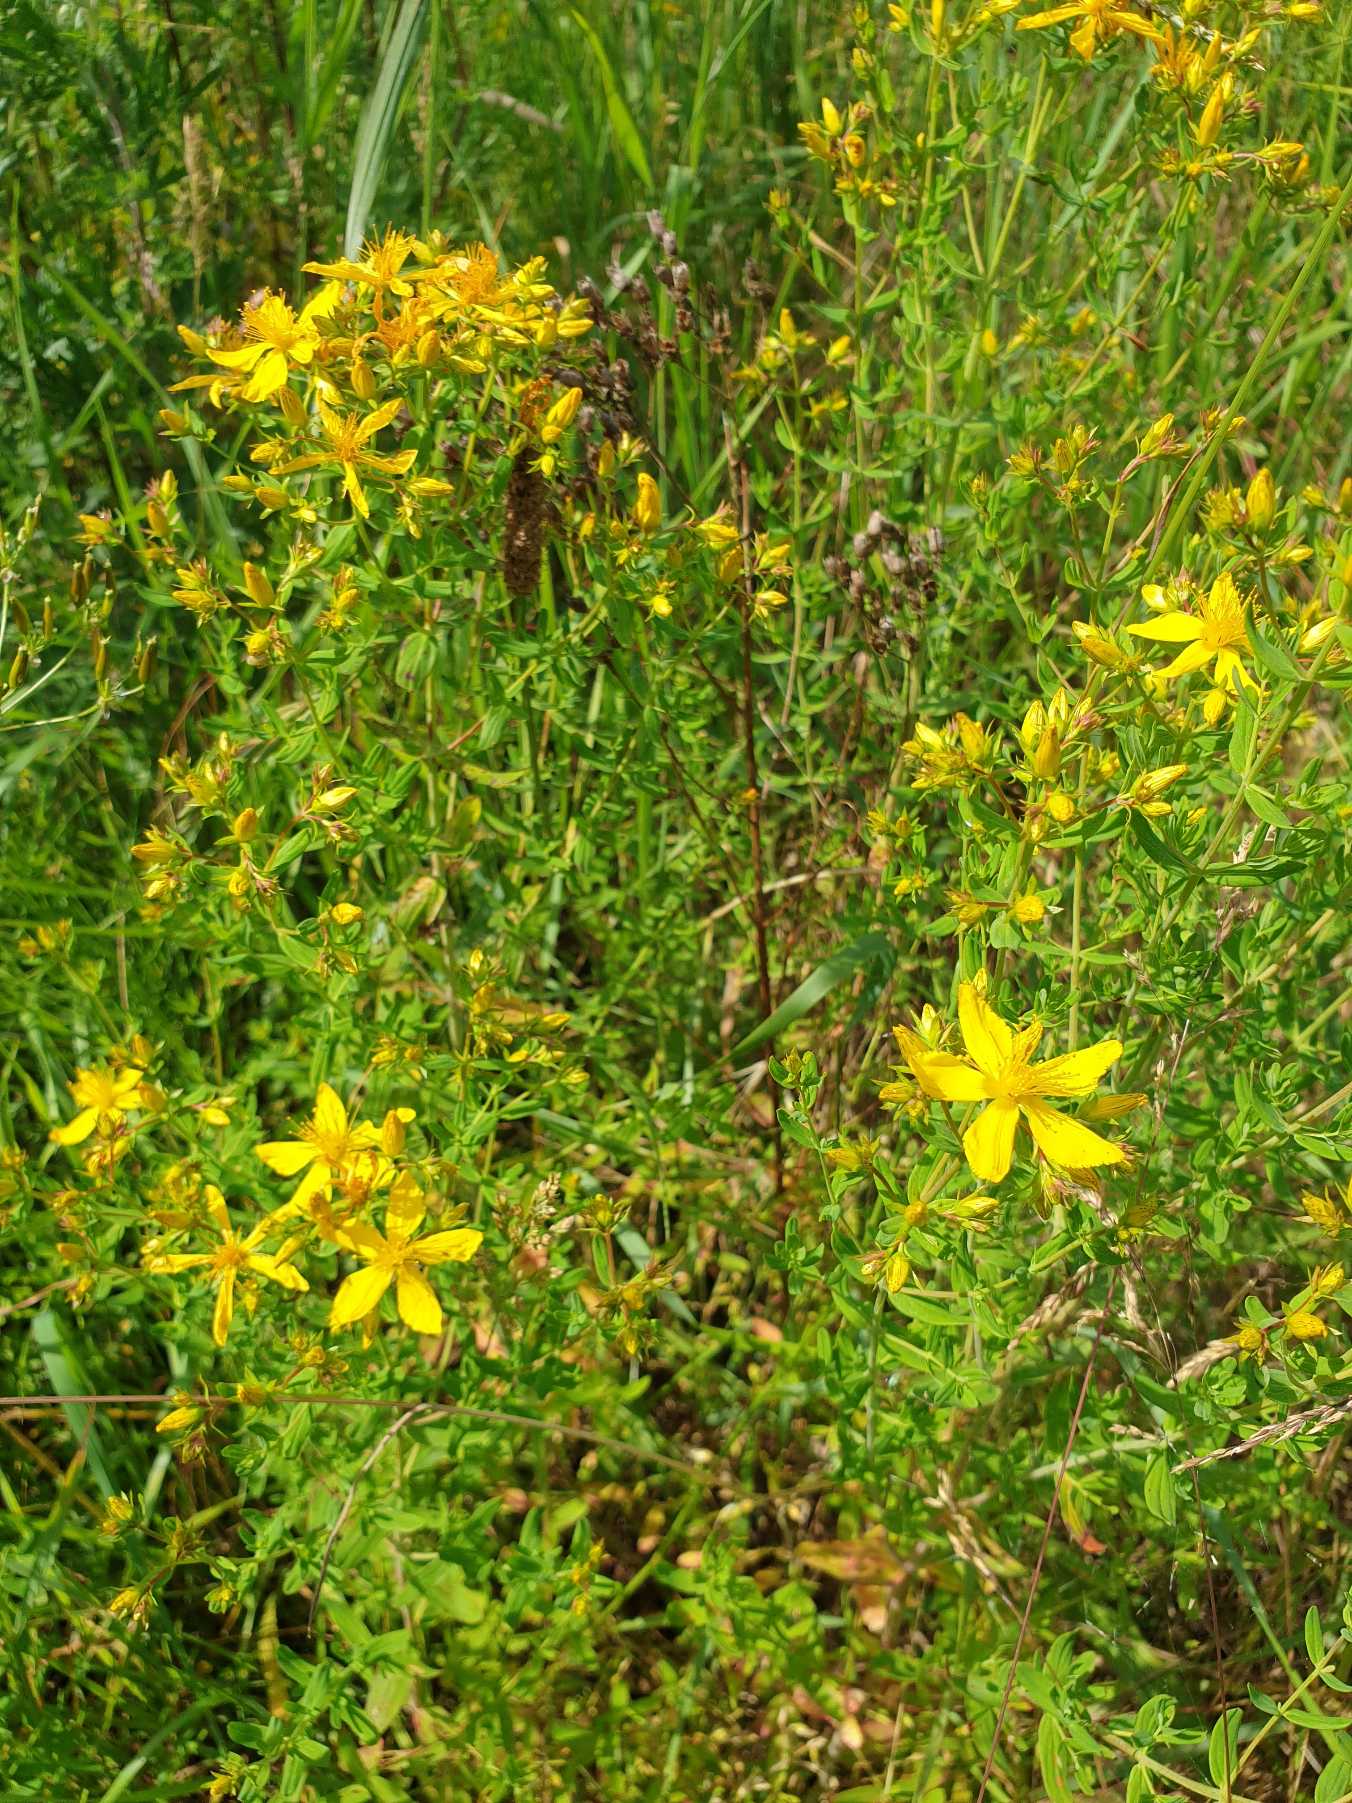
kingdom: Plantae
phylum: Tracheophyta
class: Magnoliopsida
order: Malpighiales
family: Hypericaceae
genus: Hypericum
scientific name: Hypericum perforatum
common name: Prikbladet perikon
